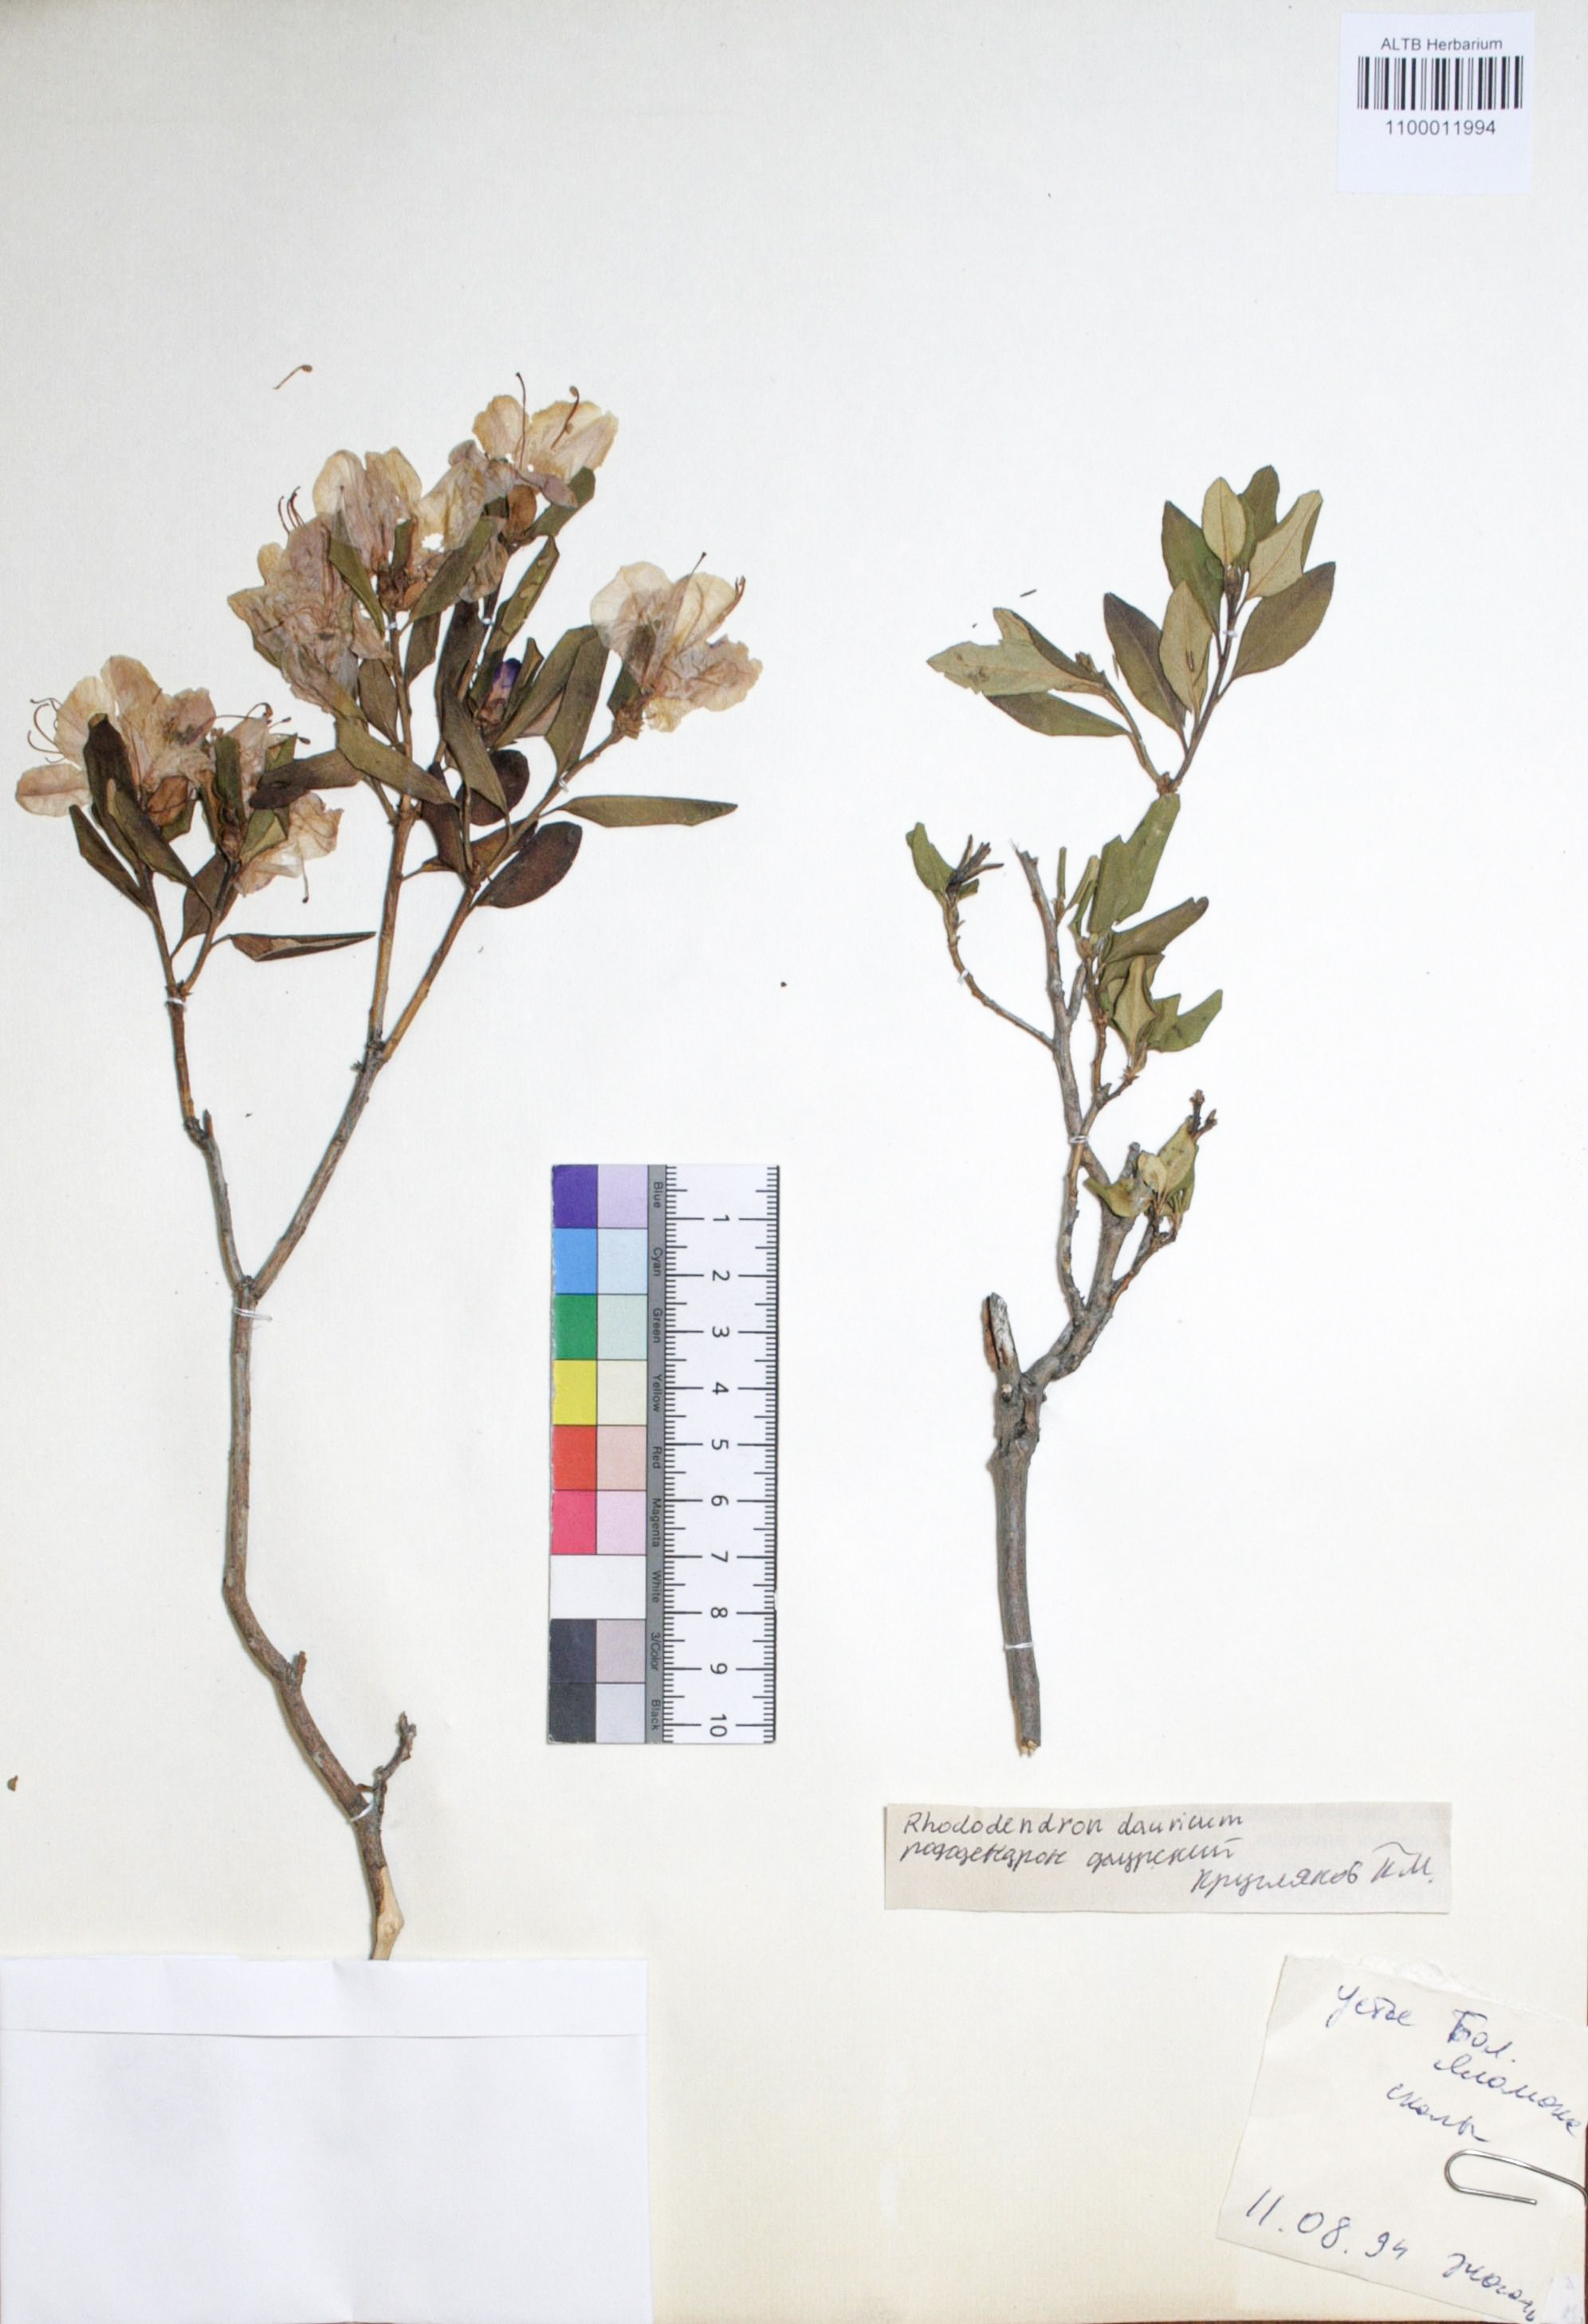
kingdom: Plantae
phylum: Tracheophyta
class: Magnoliopsida
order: Ericales
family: Ericaceae
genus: Rhododendron
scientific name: Rhododendron dahuricum
